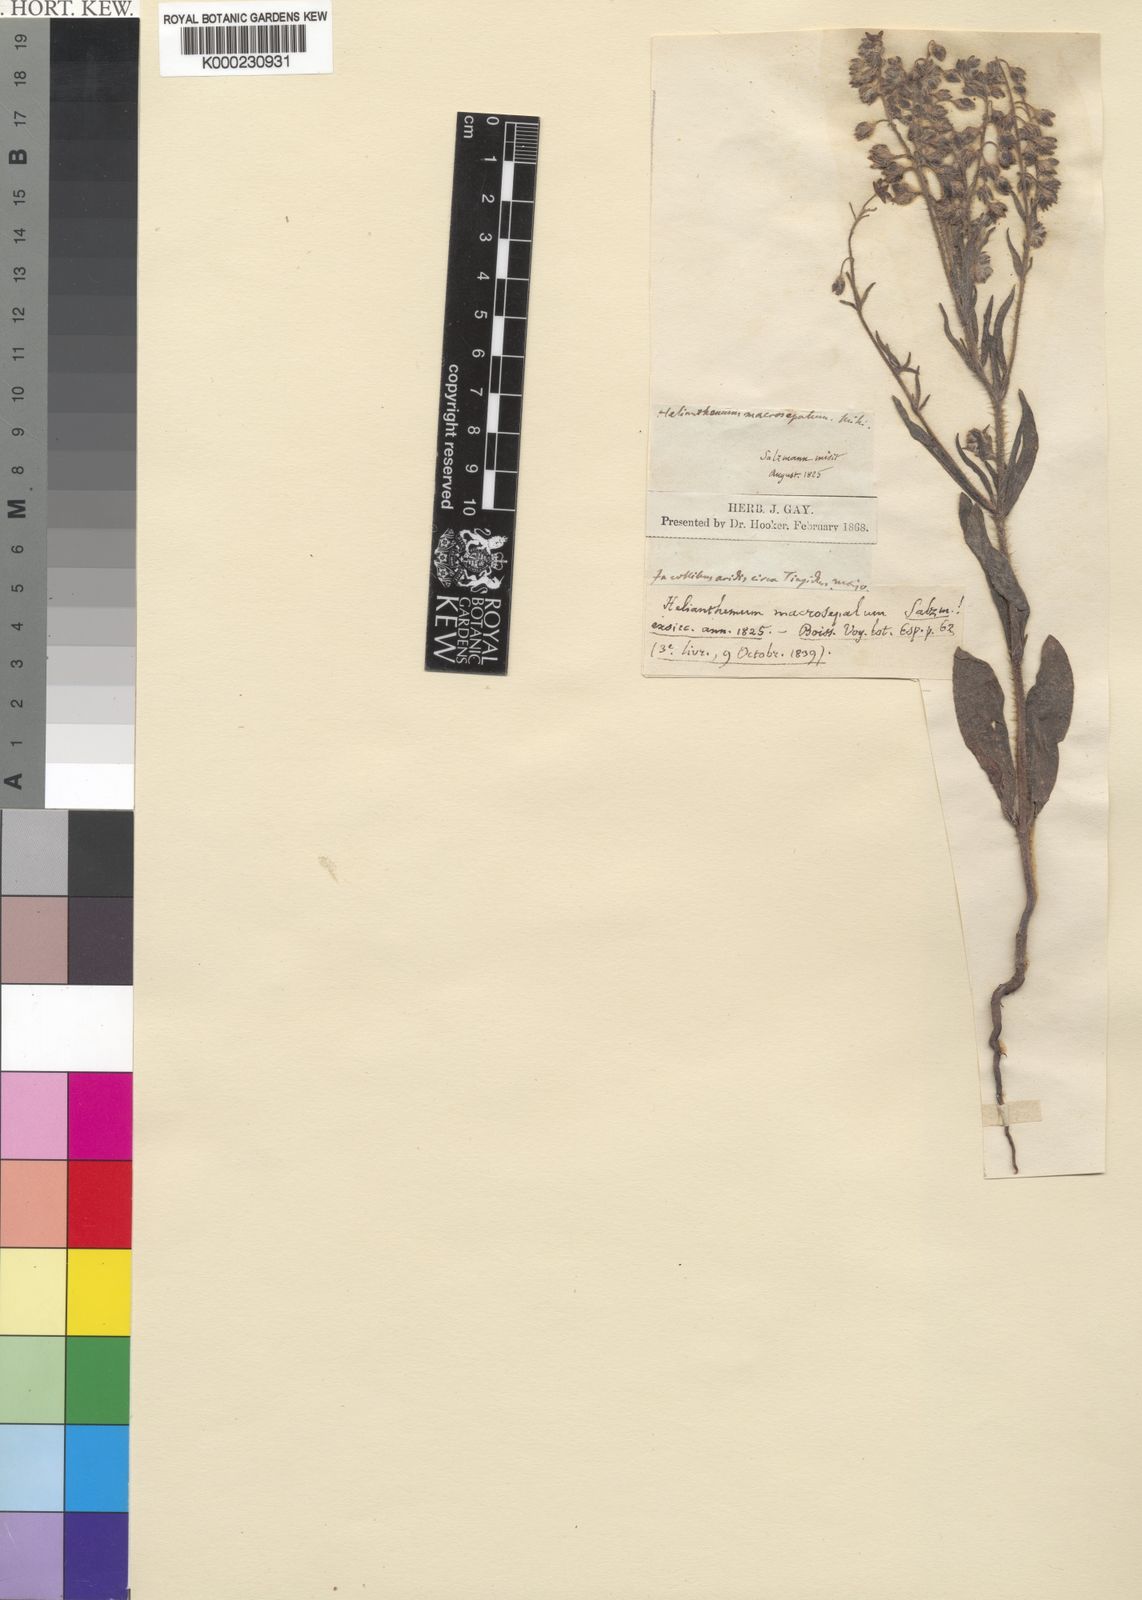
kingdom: Plantae
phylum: Tracheophyta
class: Magnoliopsida
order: Malvales
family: Cistaceae
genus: Tuberaria
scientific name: Tuberaria
